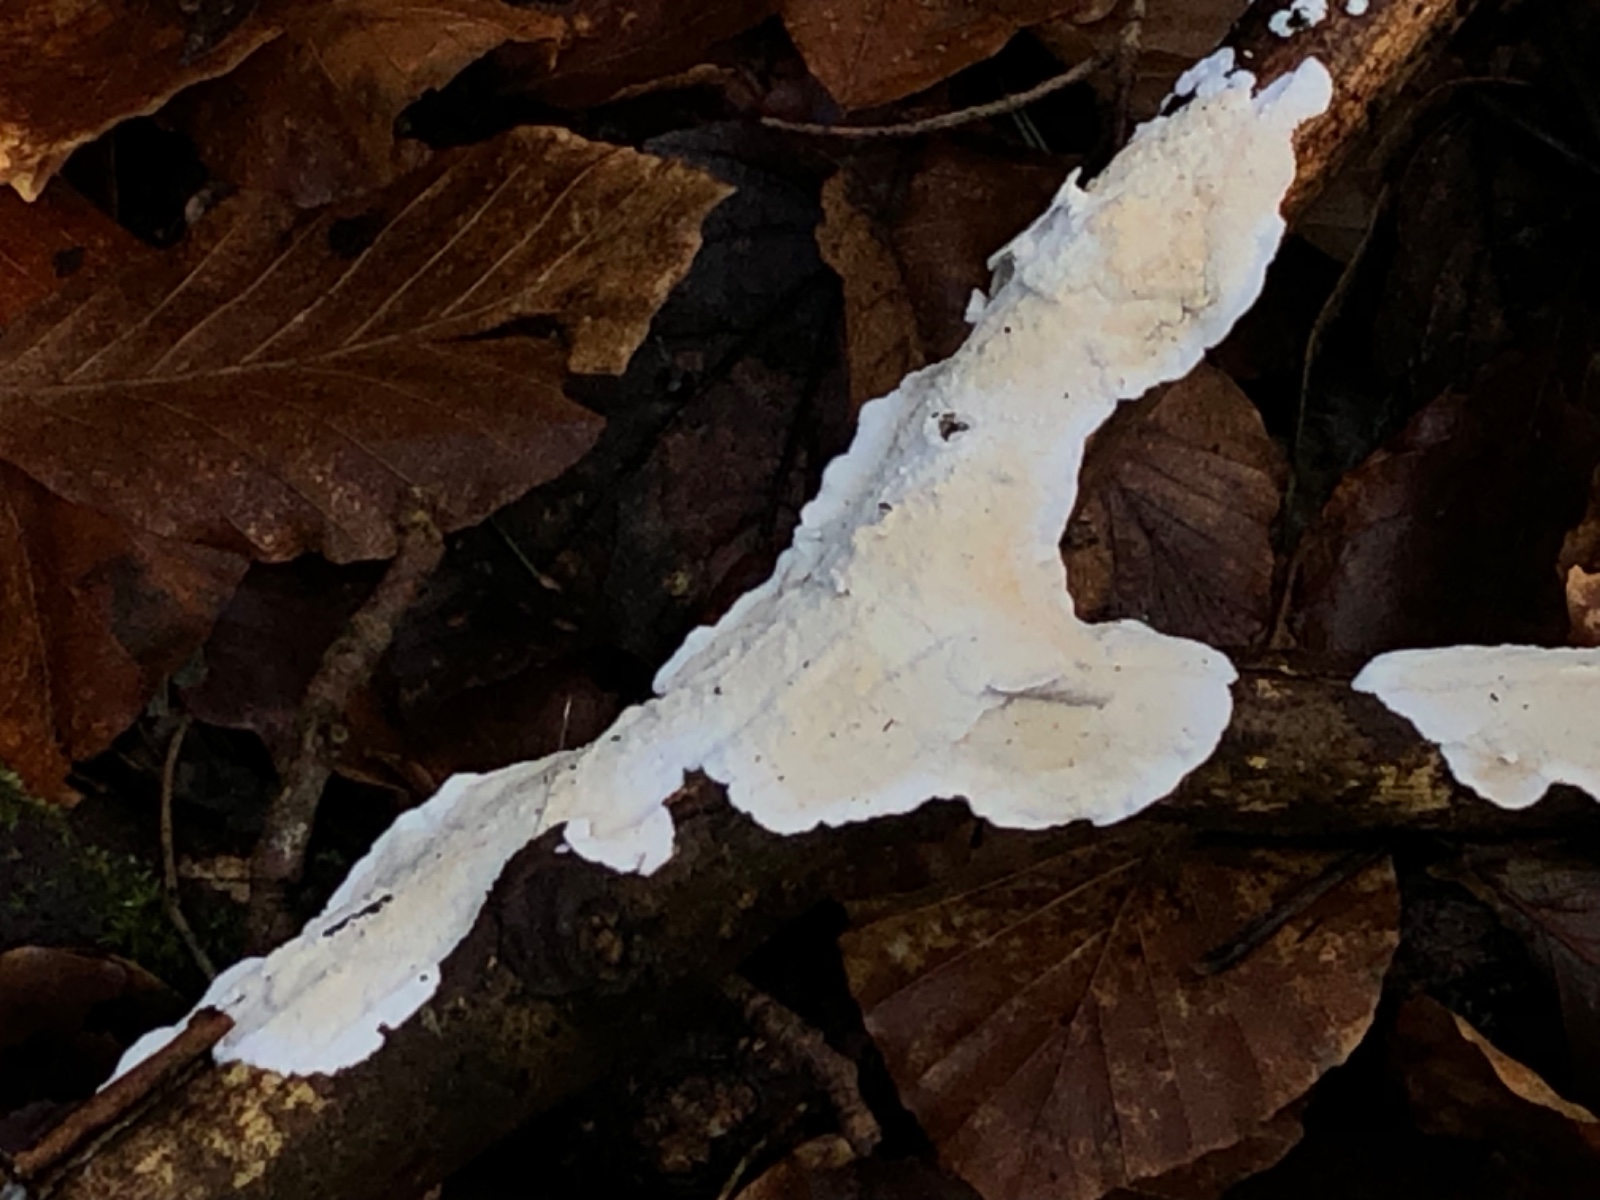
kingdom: Fungi
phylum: Basidiomycota
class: Agaricomycetes
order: Polyporales
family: Irpicaceae
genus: Byssomerulius
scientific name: Byssomerulius corium
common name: læder-åresvamp
